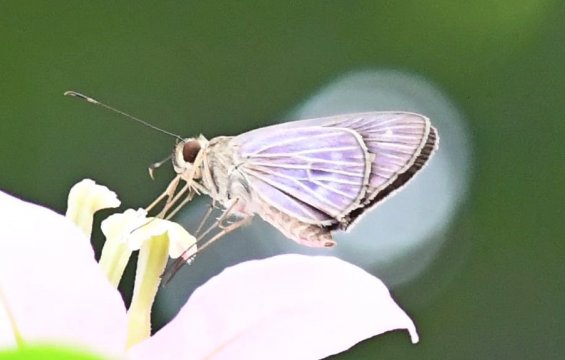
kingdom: Animalia
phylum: Arthropoda
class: Insecta
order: Lepidoptera
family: Hesperiidae
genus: Aecas
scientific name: Aecas aecas
